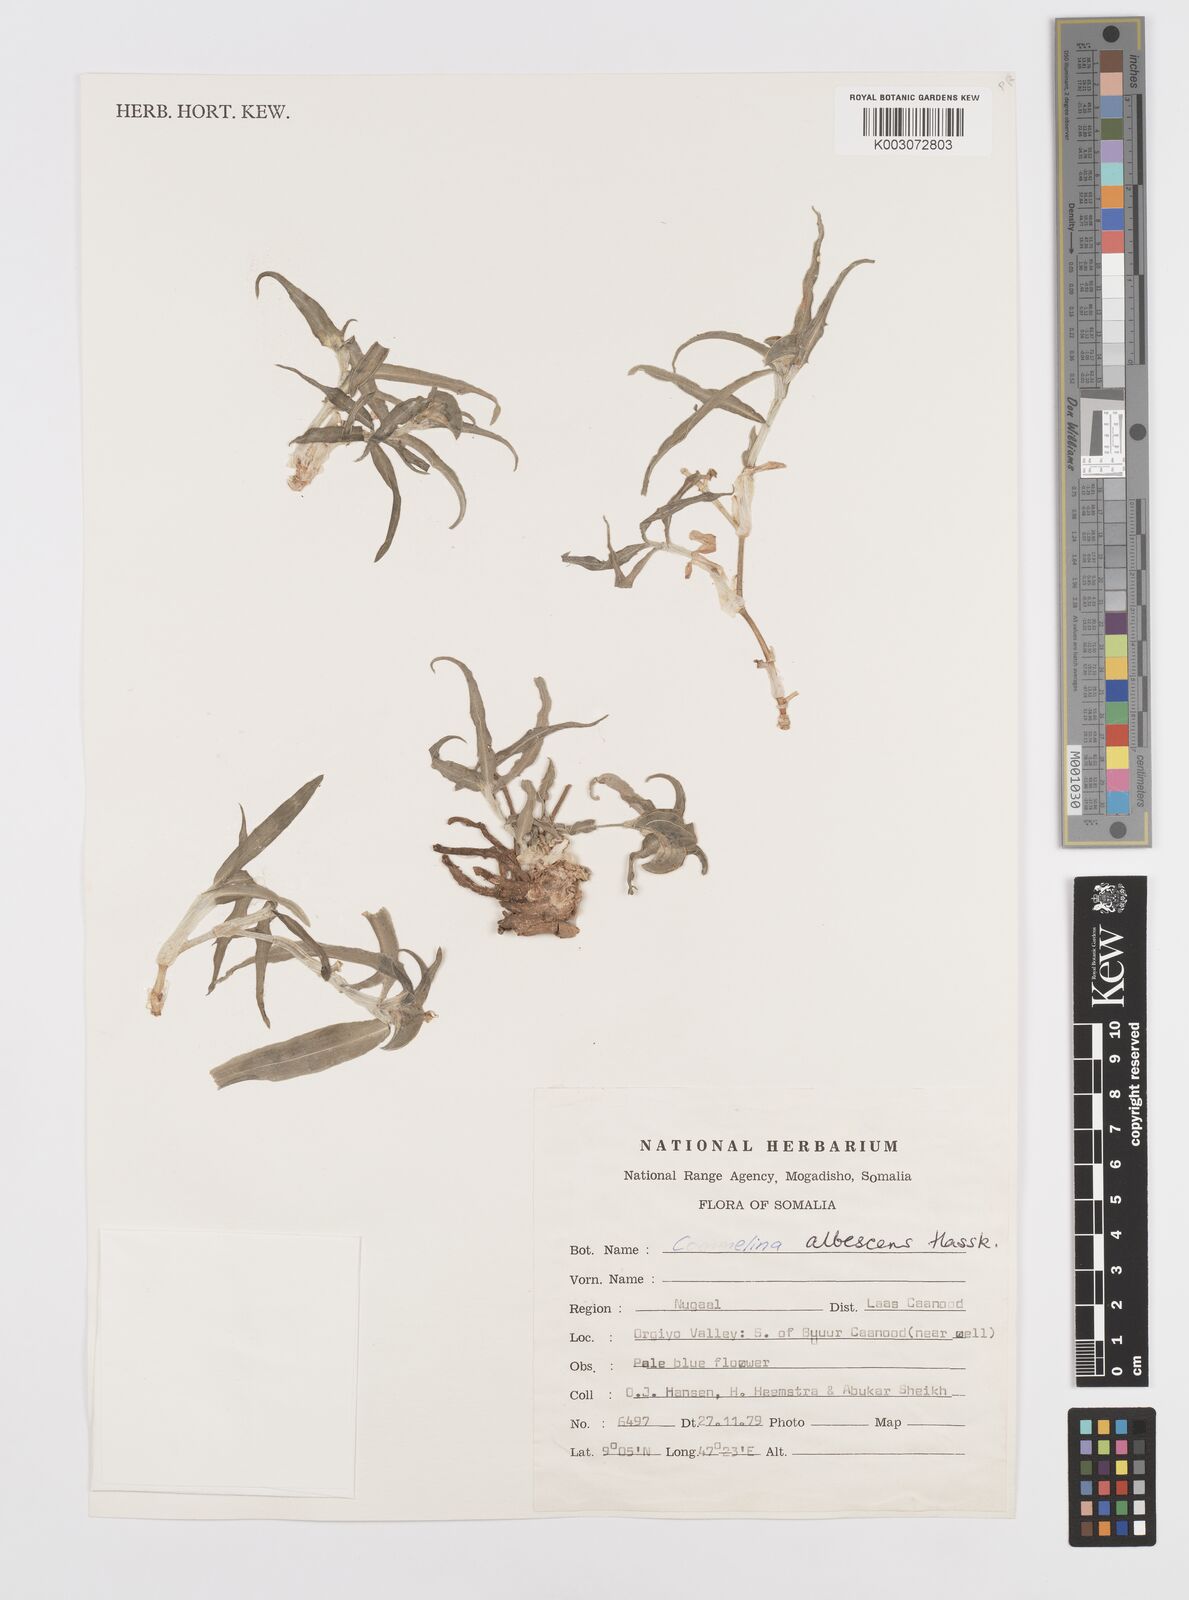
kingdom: Plantae
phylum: Tracheophyta
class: Liliopsida
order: Commelinales
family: Commelinaceae
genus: Commelina
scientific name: Commelina albescens
